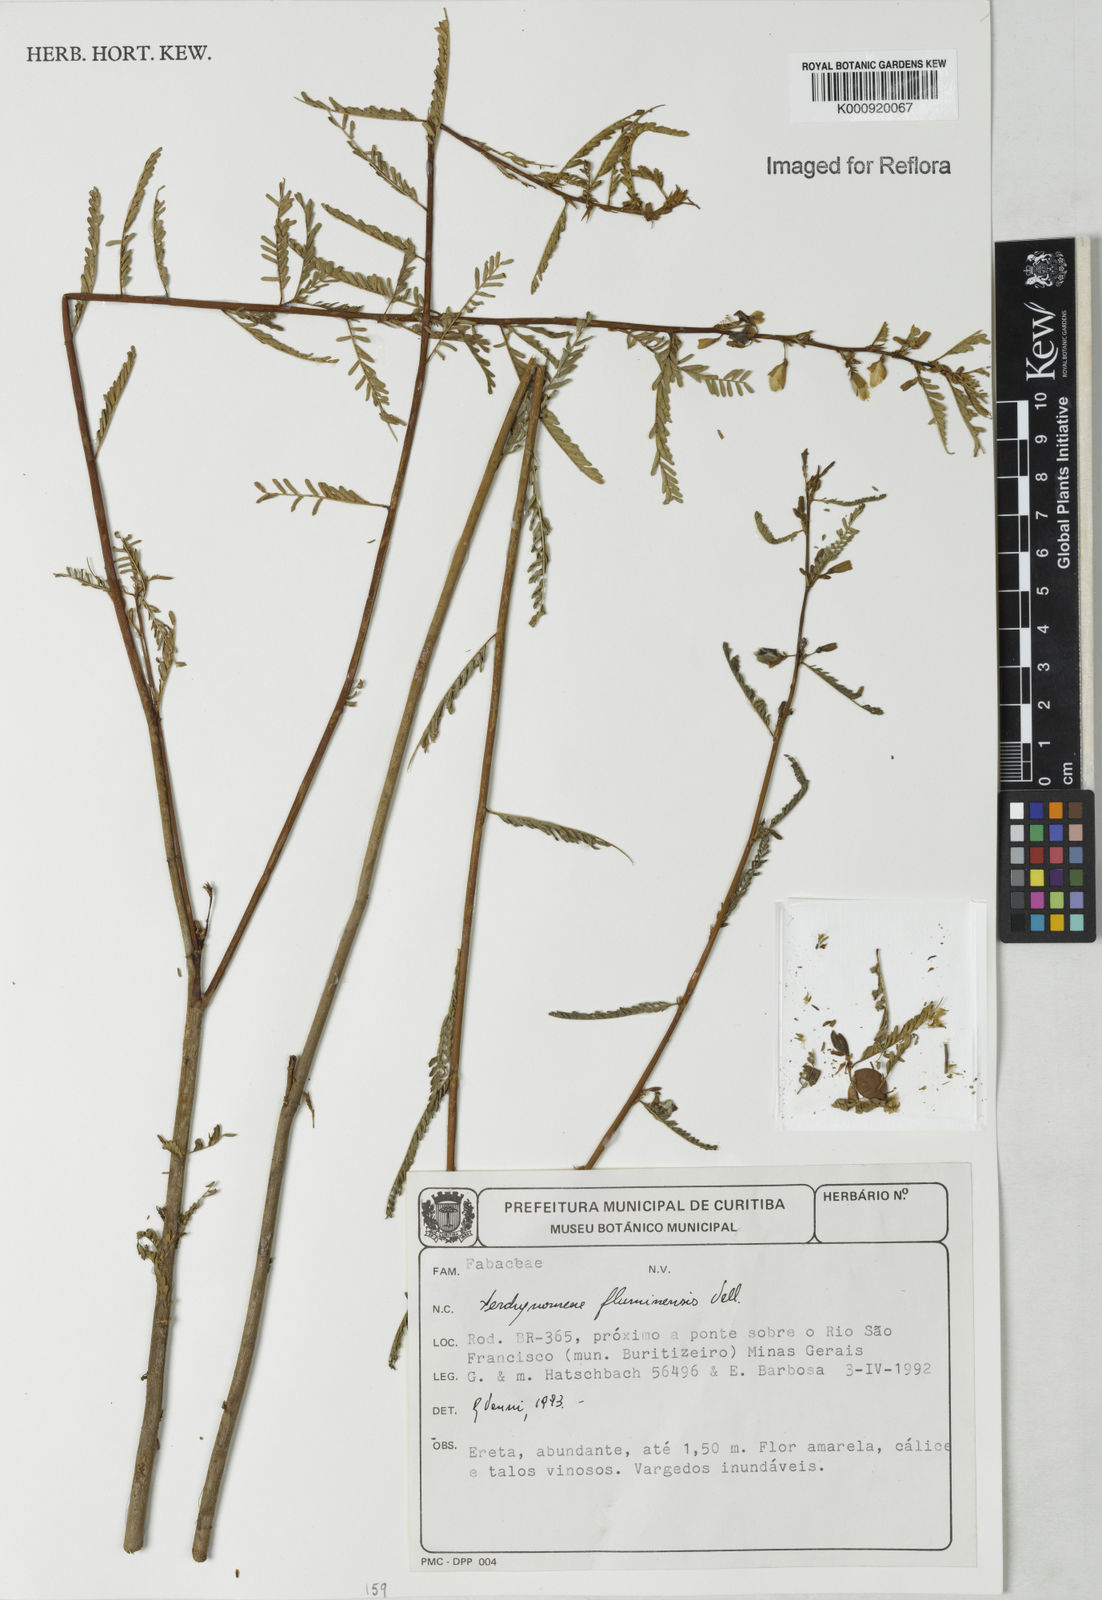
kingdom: Plantae
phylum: Tracheophyta
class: Magnoliopsida
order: Fabales
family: Fabaceae
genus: Aeschynomene
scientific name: Aeschynomene fluminensis
